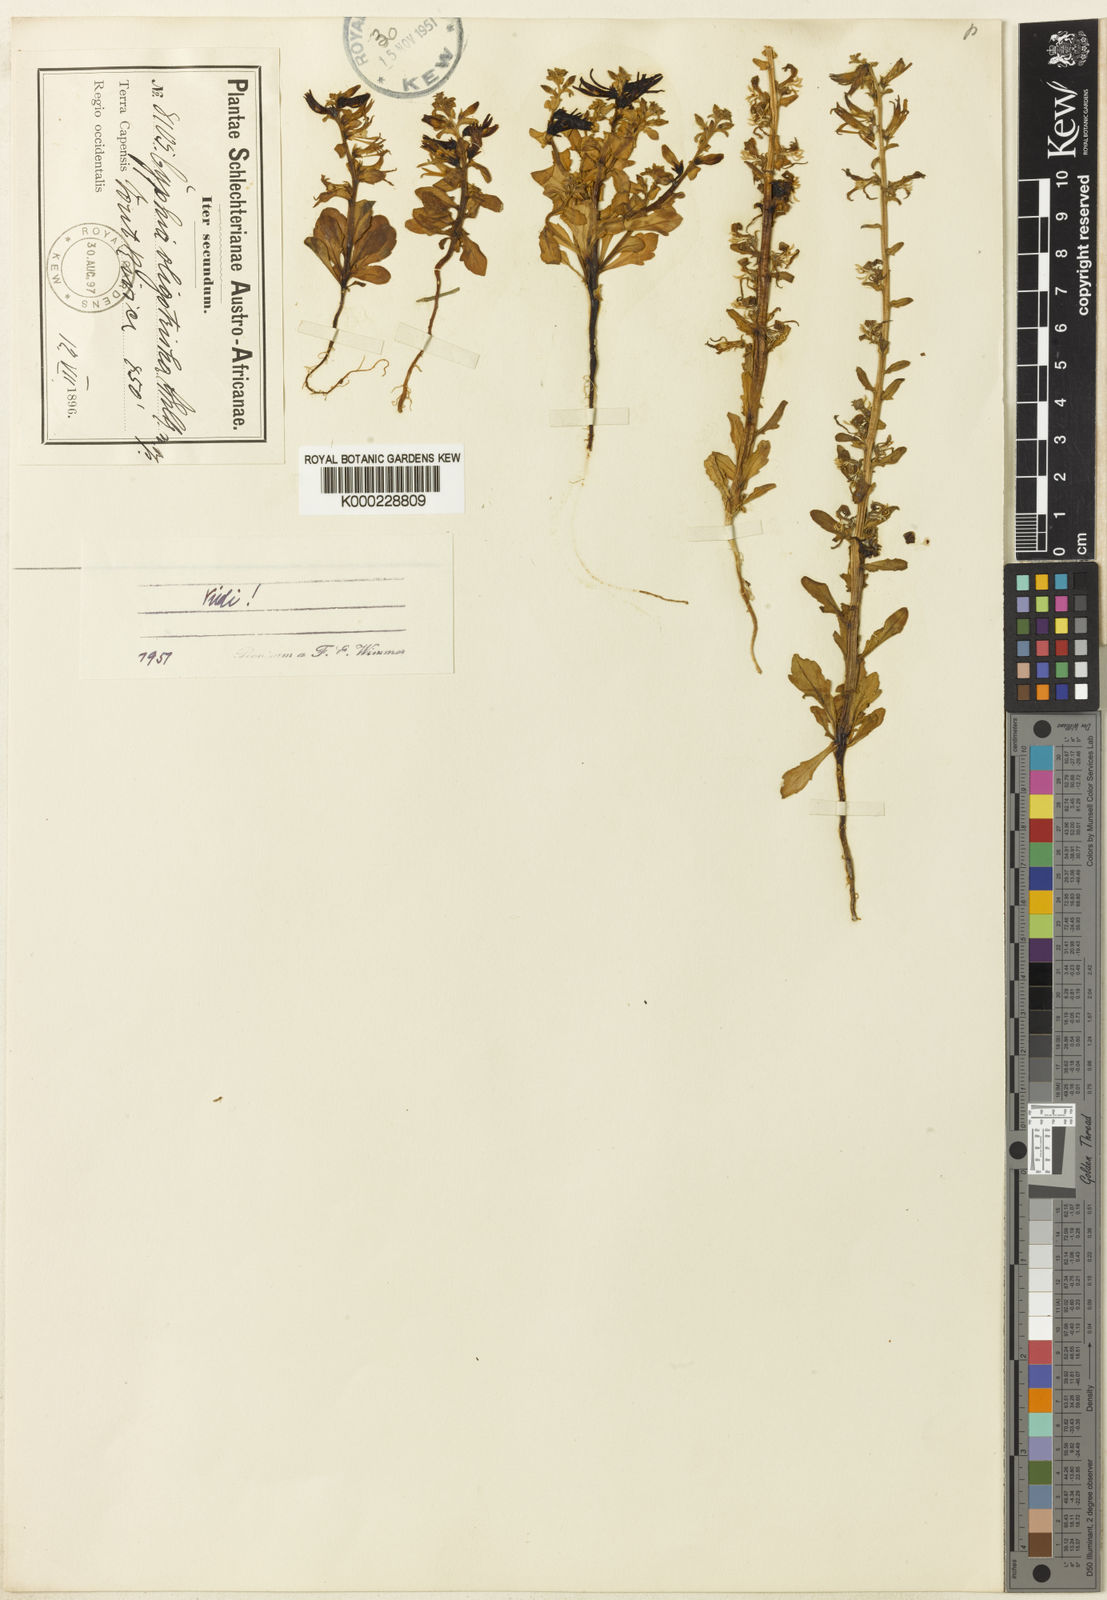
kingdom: Plantae
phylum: Tracheophyta
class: Magnoliopsida
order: Asterales
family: Campanulaceae
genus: Cyphia
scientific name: Cyphia oligotricha
